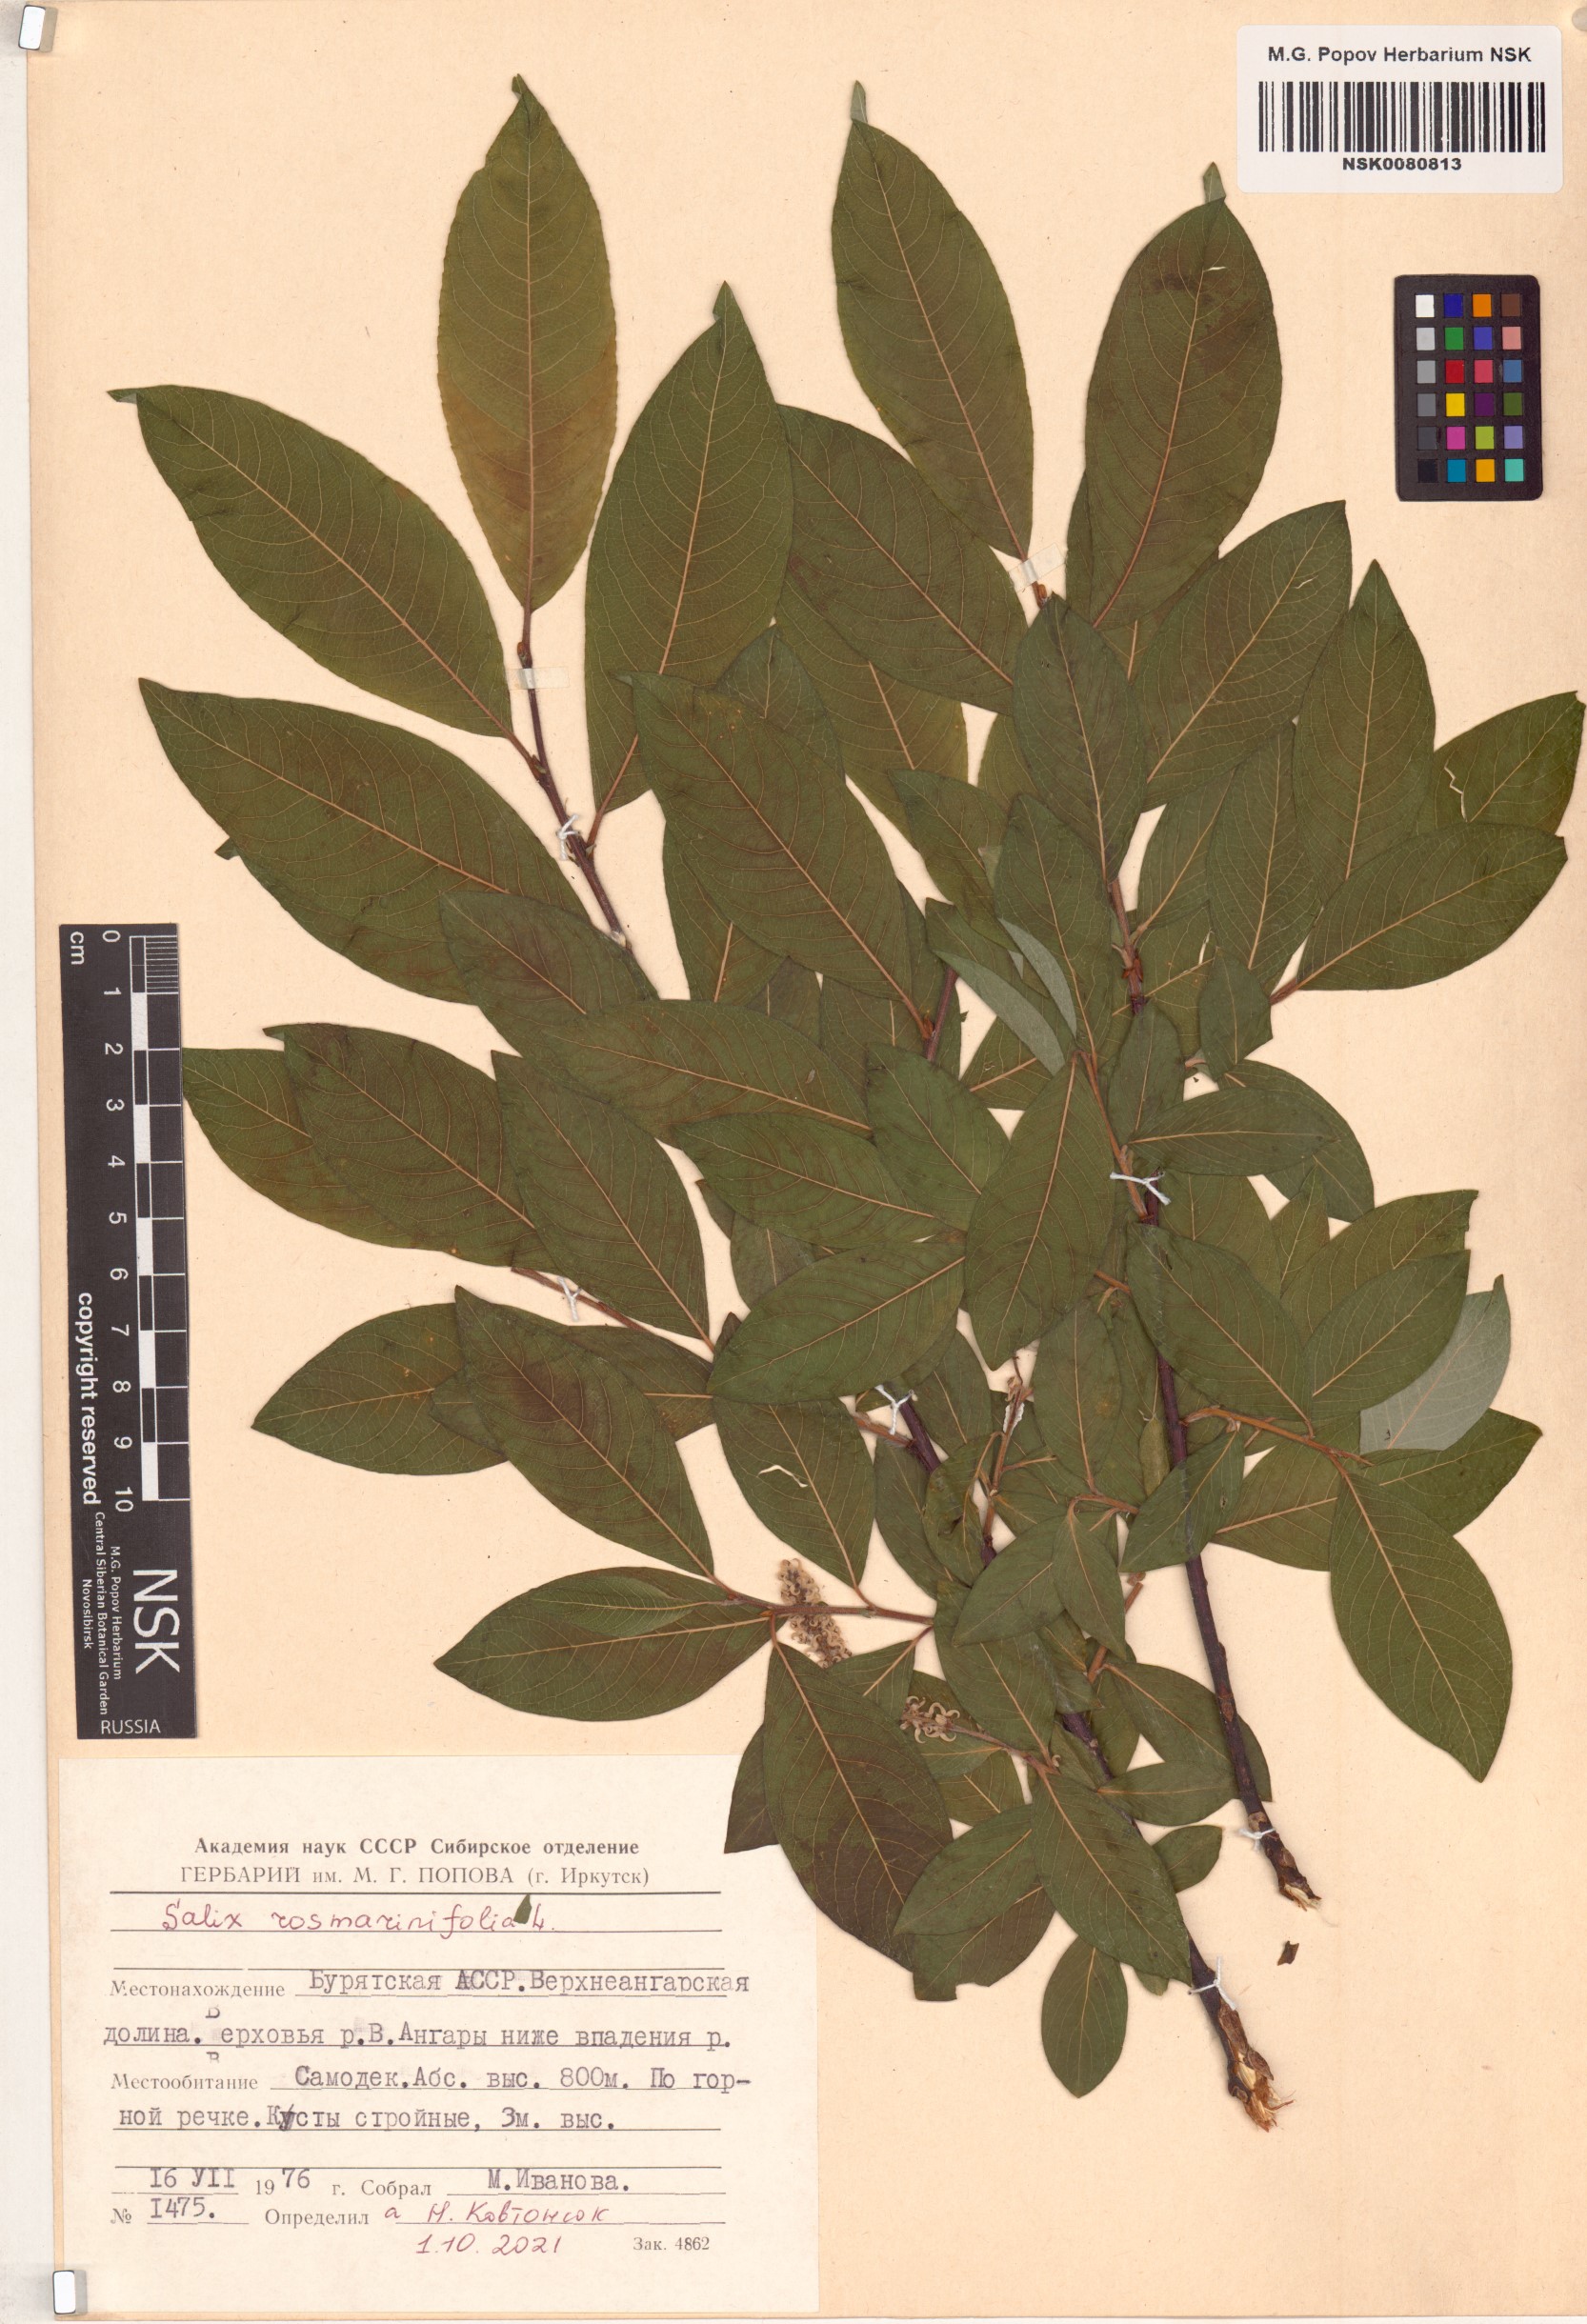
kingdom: Plantae
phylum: Tracheophyta
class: Magnoliopsida
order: Malpighiales
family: Salicaceae
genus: Salix
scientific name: Salix rosmarinifolia
